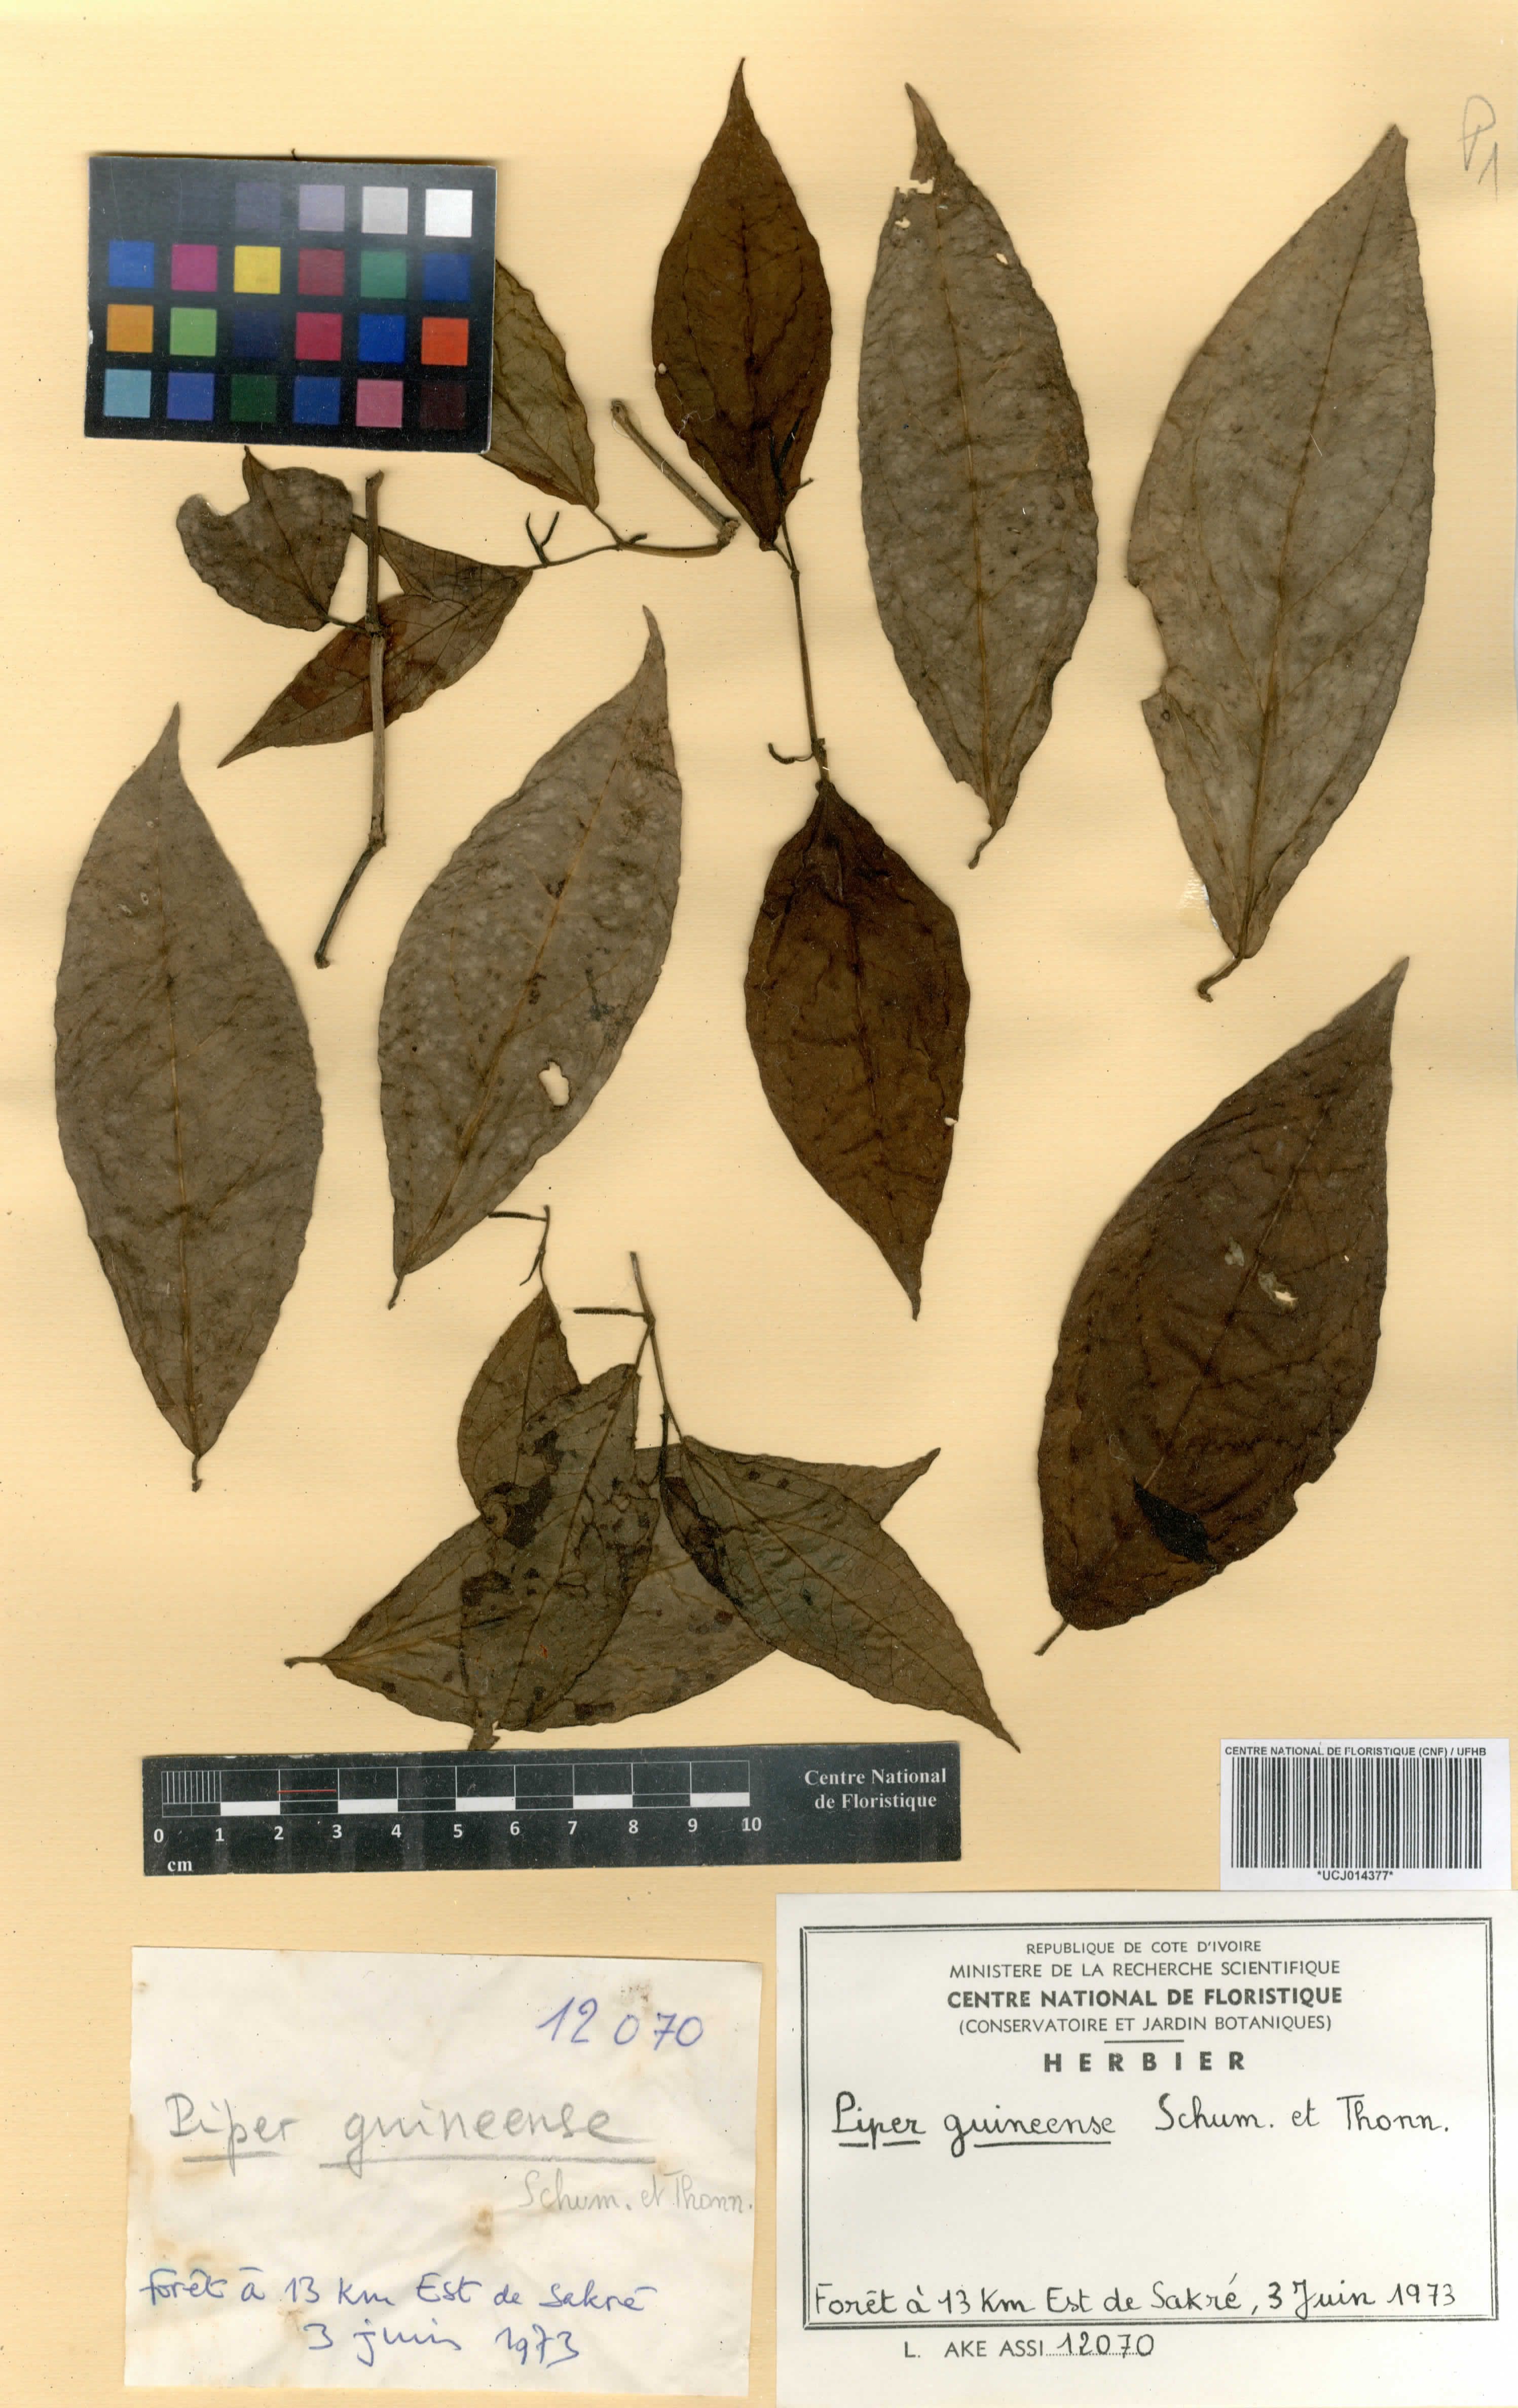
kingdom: Plantae
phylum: Tracheophyta
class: Magnoliopsida
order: Piperales
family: Piperaceae
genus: Piper
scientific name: Piper guineense
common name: Benin pepper
